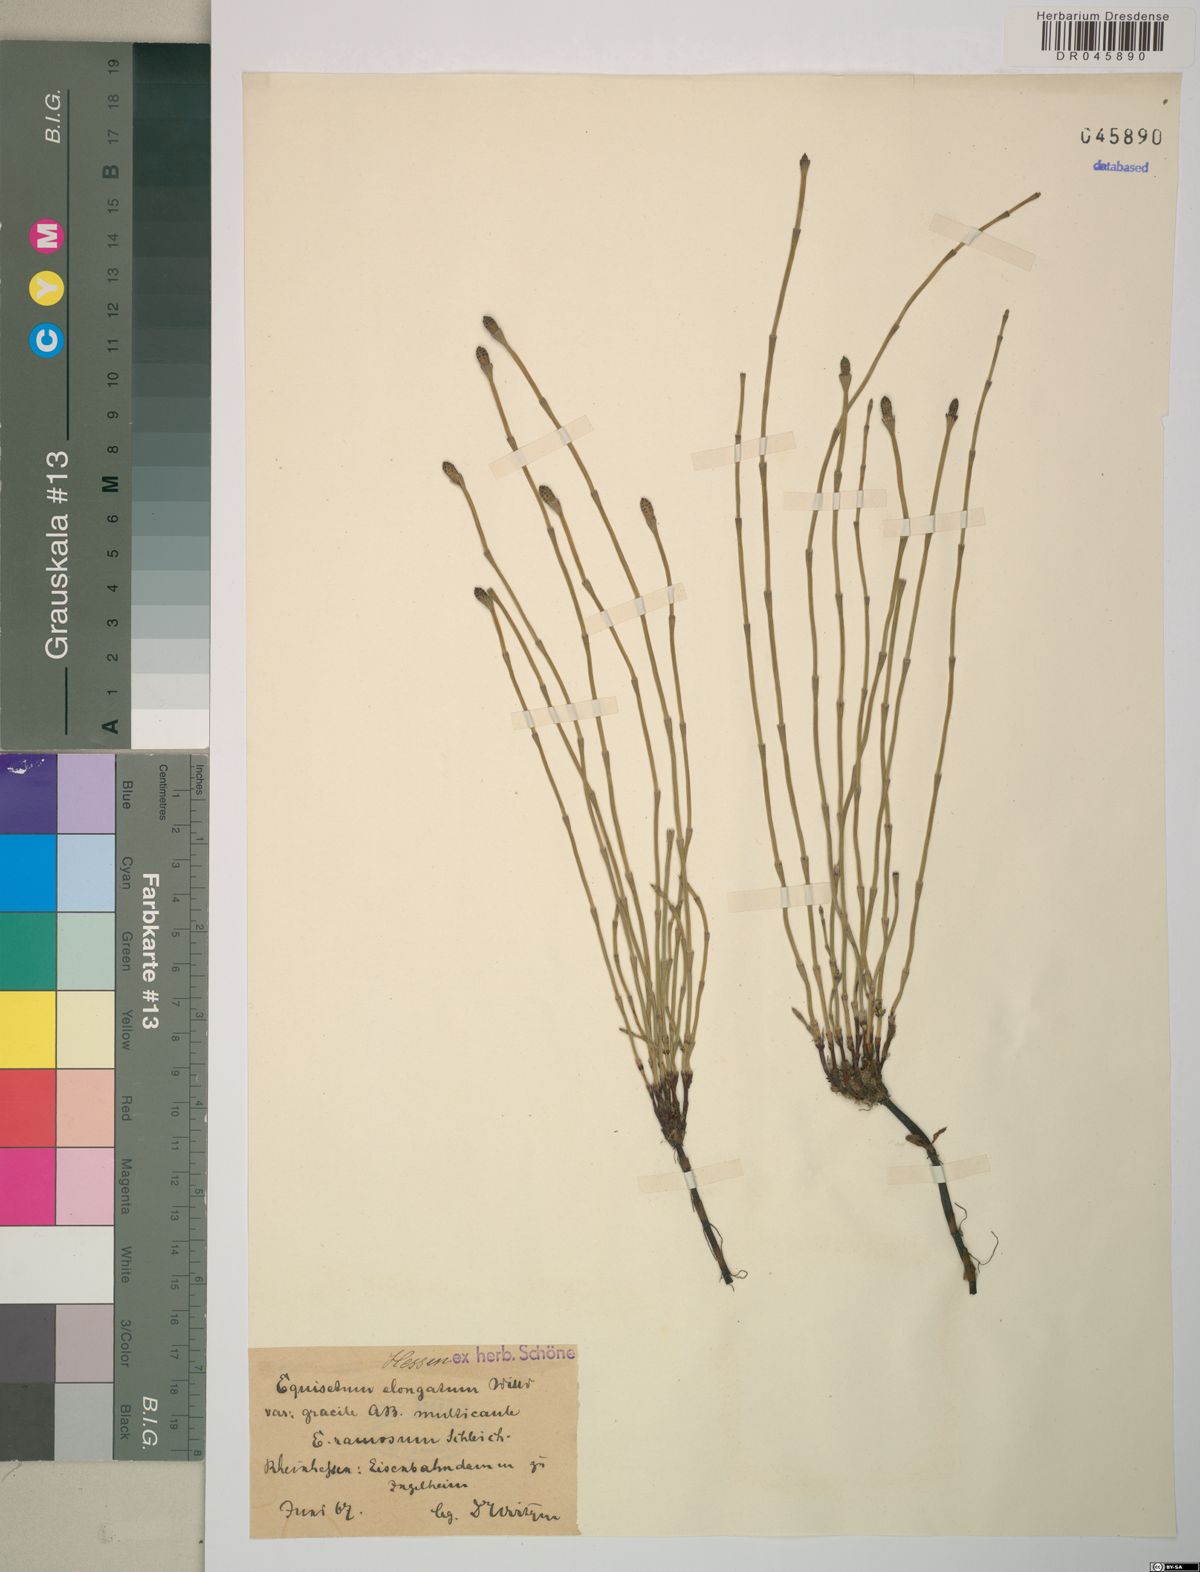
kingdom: Plantae
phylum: Tracheophyta
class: Polypodiopsida
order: Equisetales
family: Equisetaceae
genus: Equisetum
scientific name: Equisetum ramosissimum
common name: Branched horsetail
